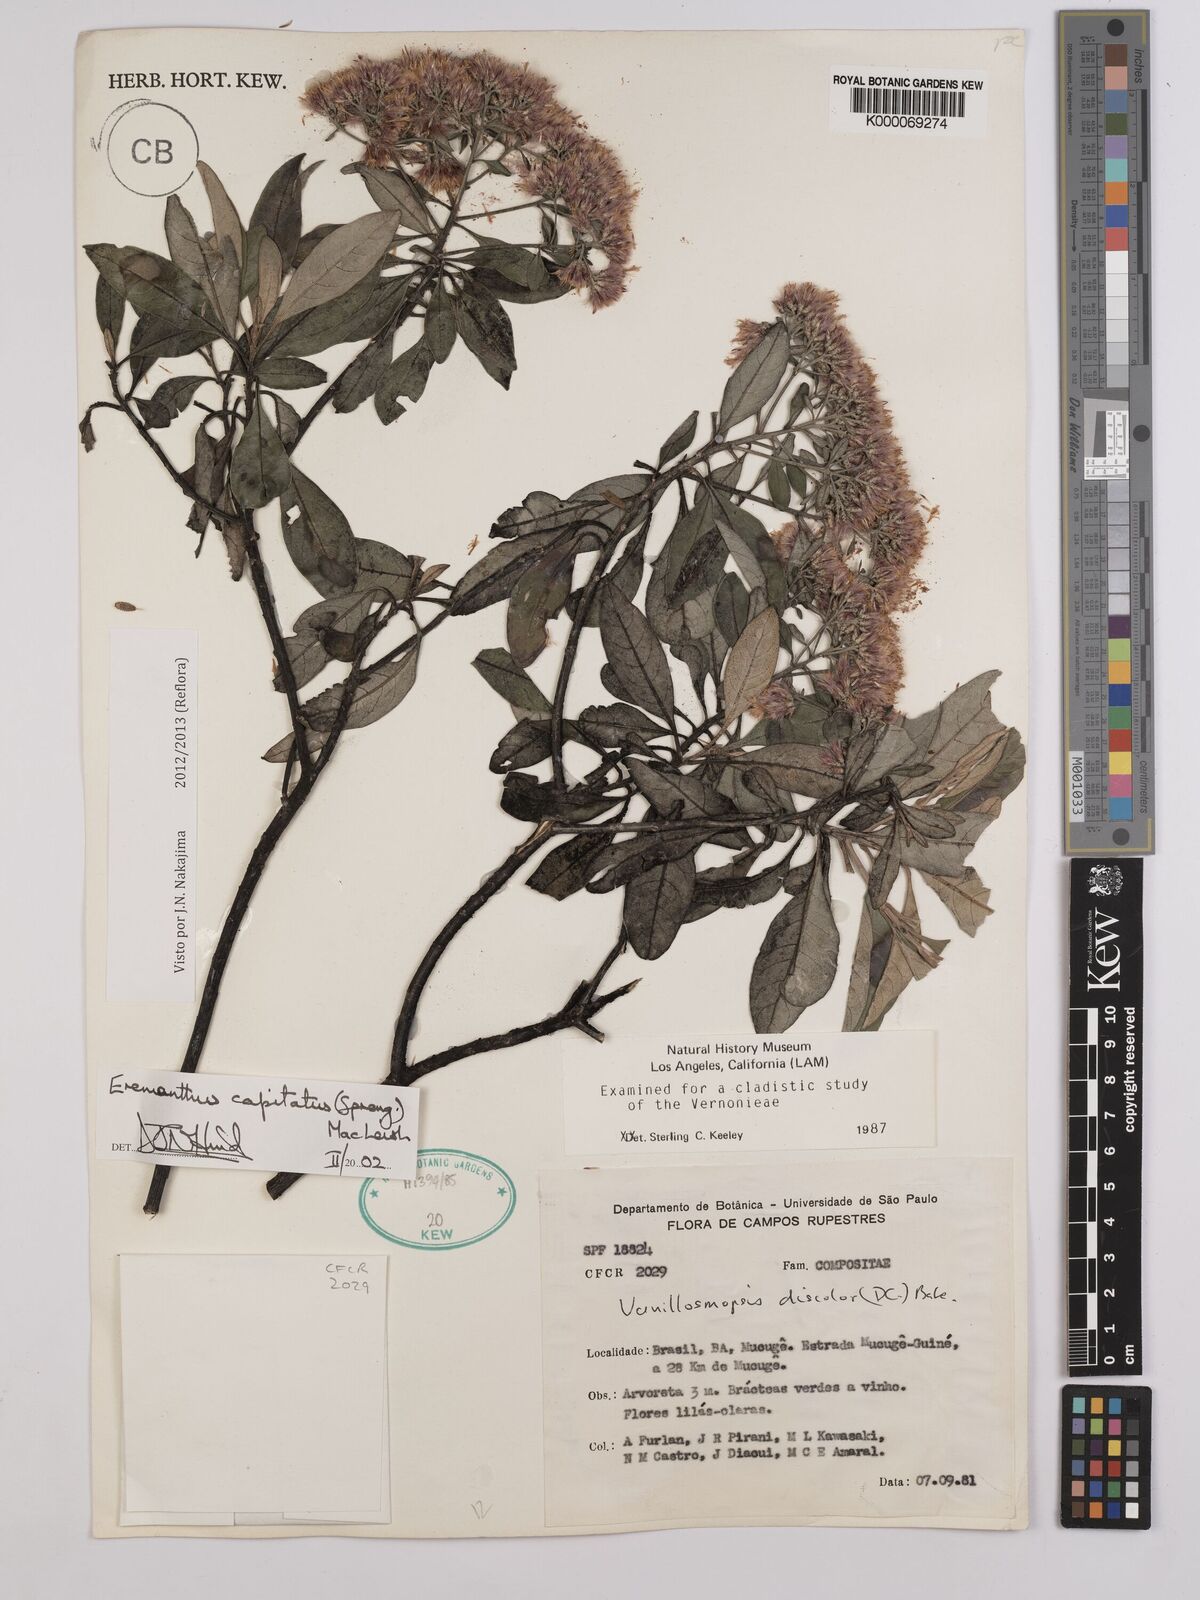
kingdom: Plantae
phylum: Tracheophyta
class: Magnoliopsida
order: Asterales
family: Asteraceae
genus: Eremanthus
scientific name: Eremanthus capitatus
